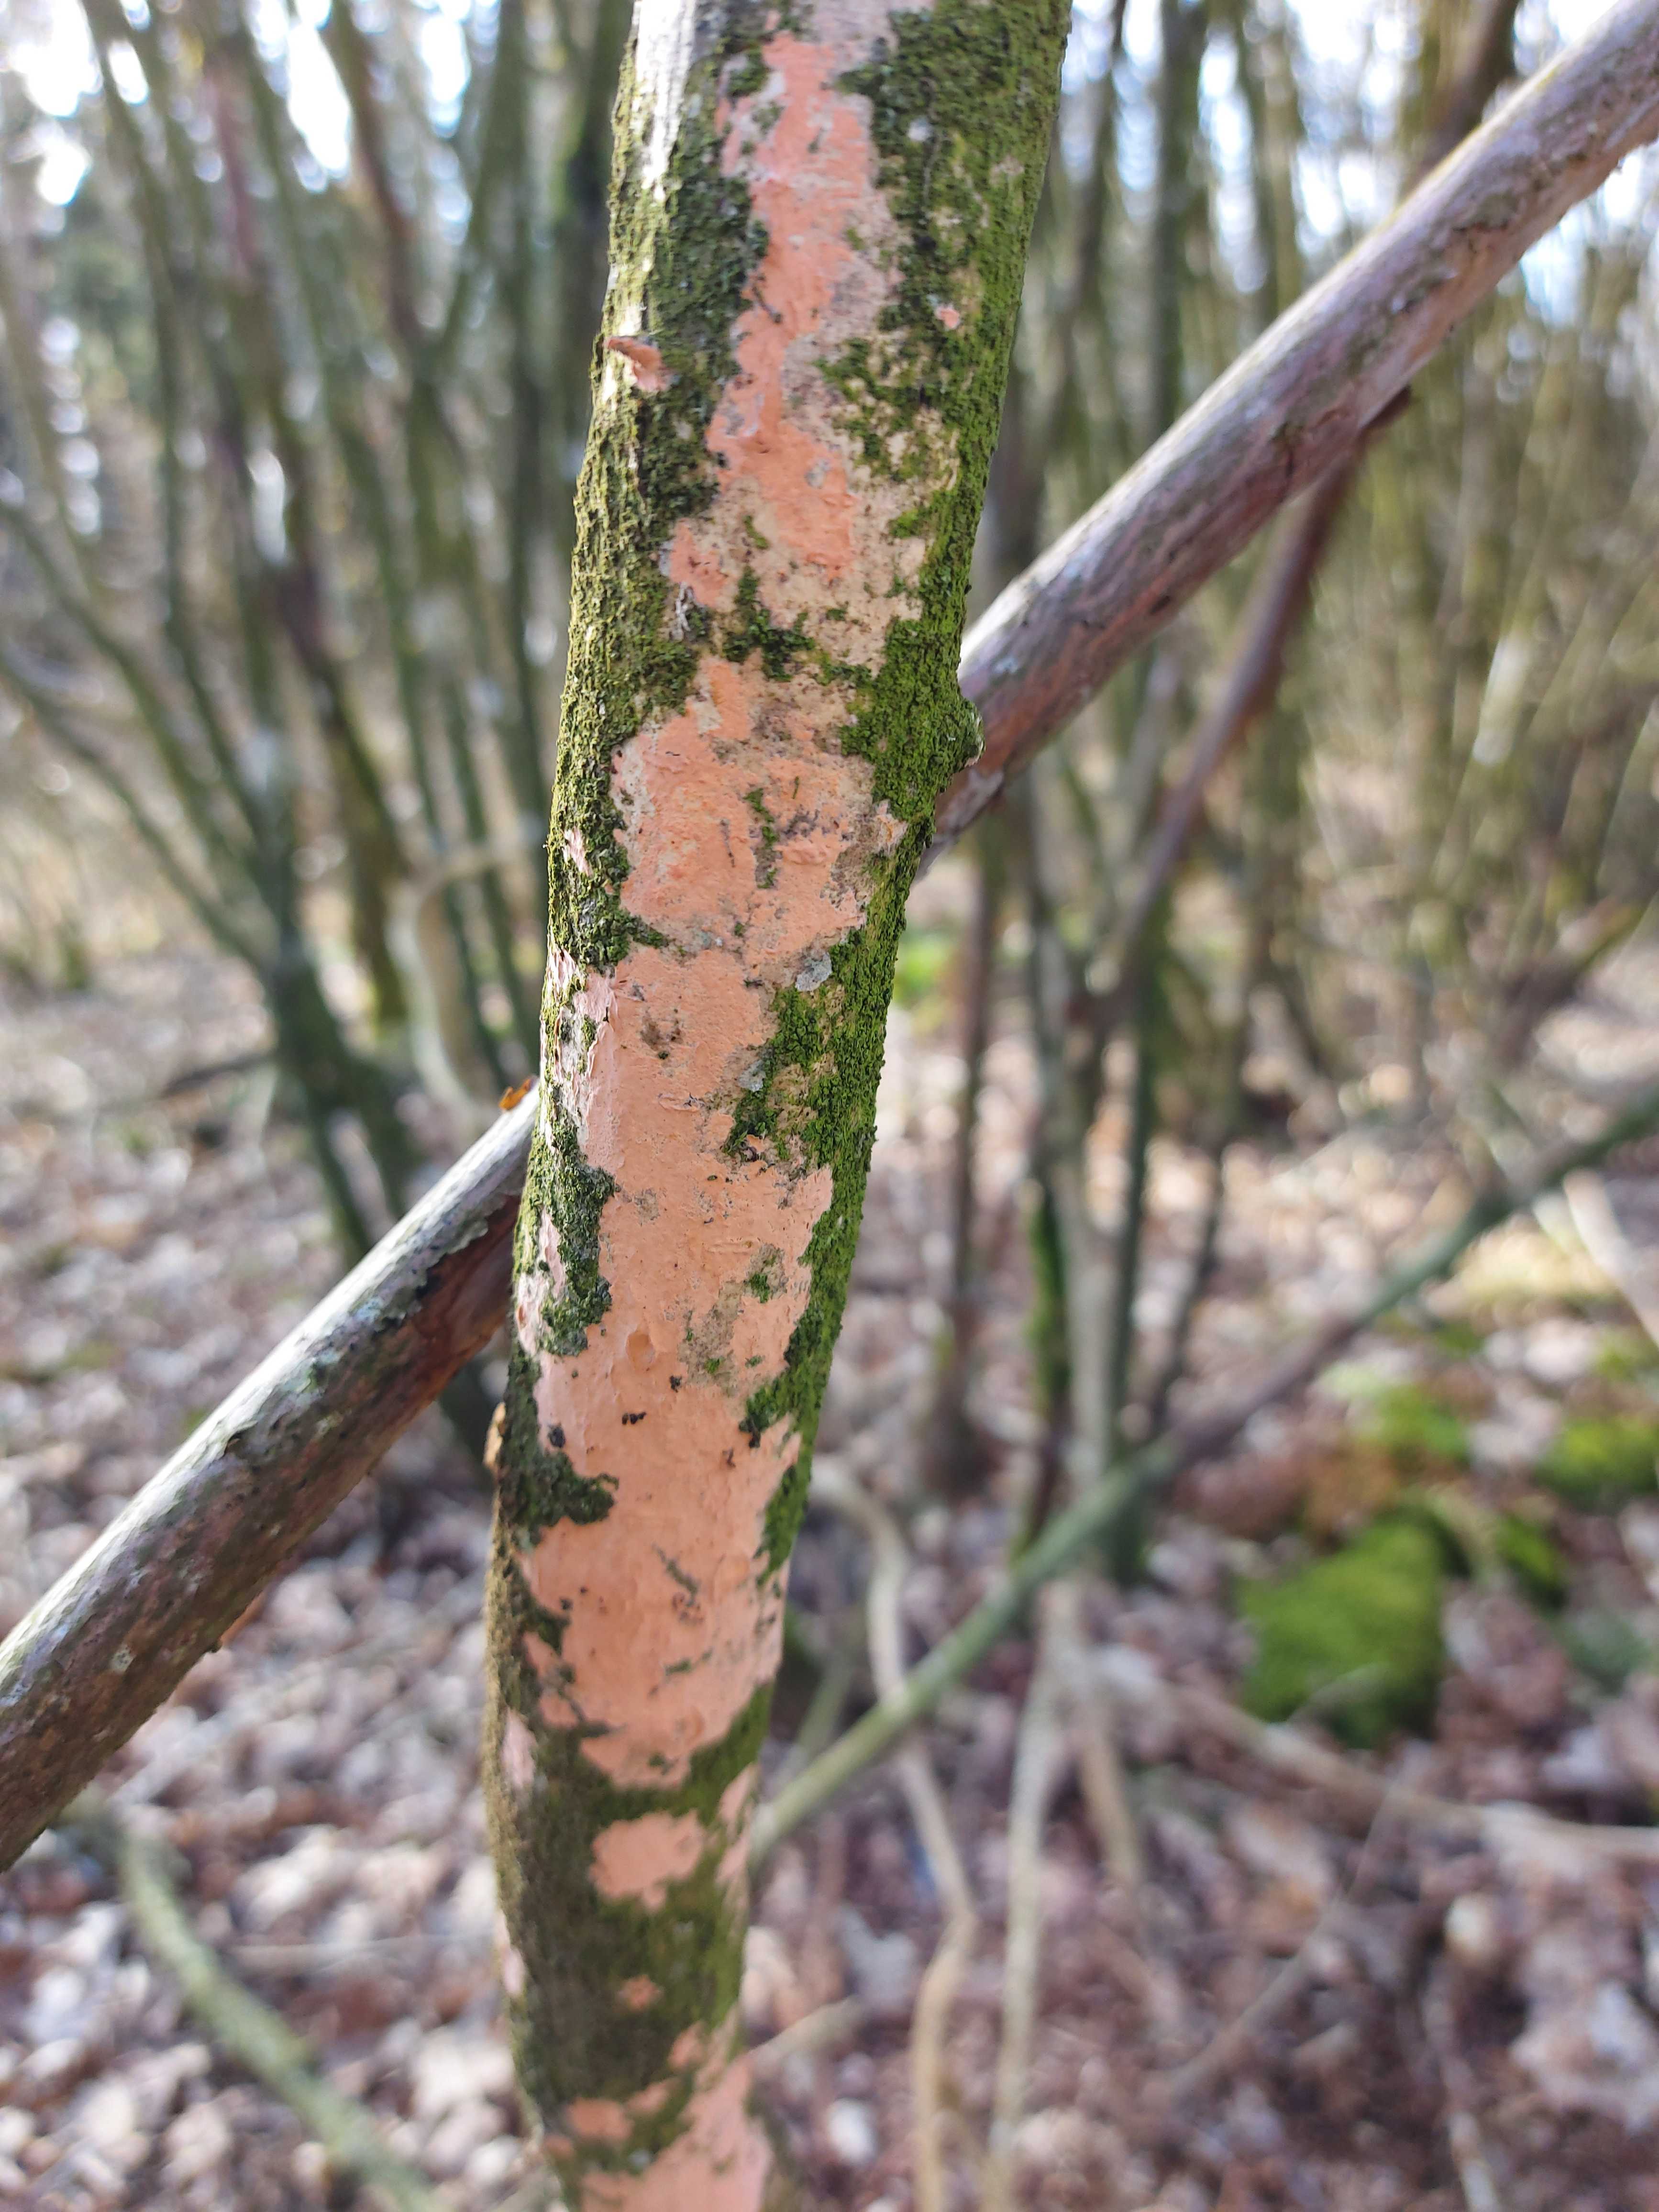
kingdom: Fungi
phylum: Basidiomycota
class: Agaricomycetes
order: Russulales
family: Peniophoraceae
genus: Peniophora
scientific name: Peniophora incarnata
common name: laksefarvet voksskind
